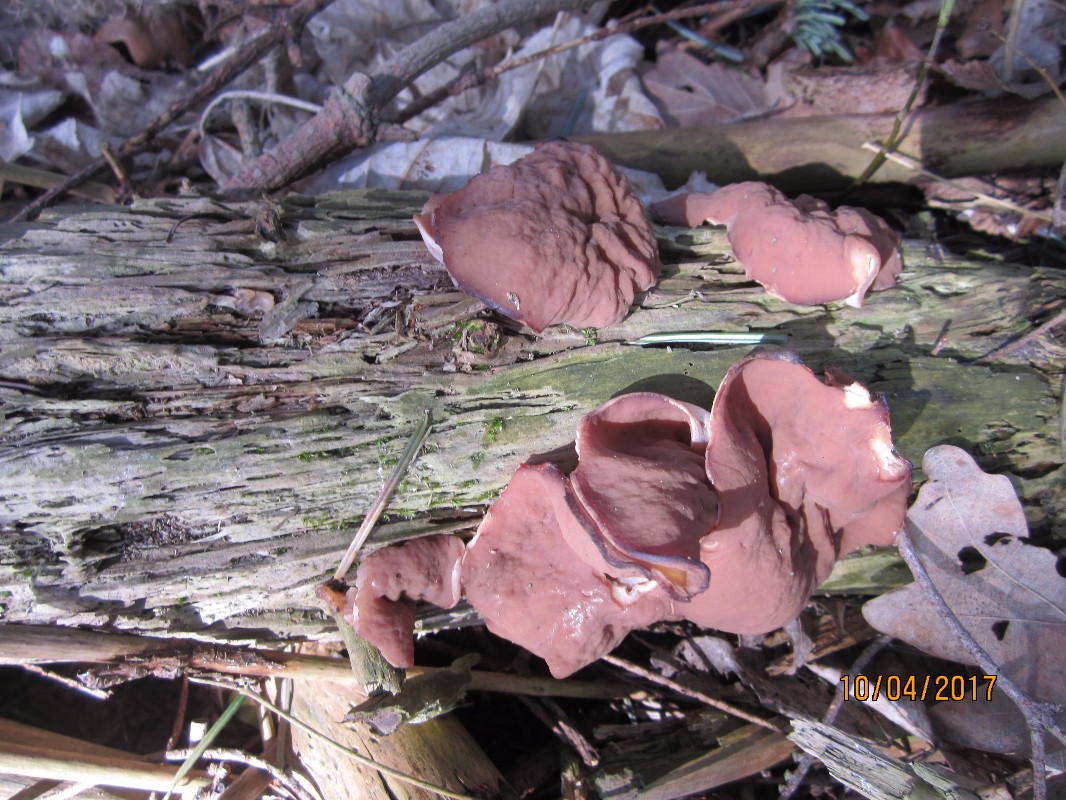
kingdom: Fungi
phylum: Ascomycota
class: Pezizomycetes
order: Pezizales
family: Discinaceae
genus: Discina
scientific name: Discina ancilis
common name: udbredt stenmorkel
